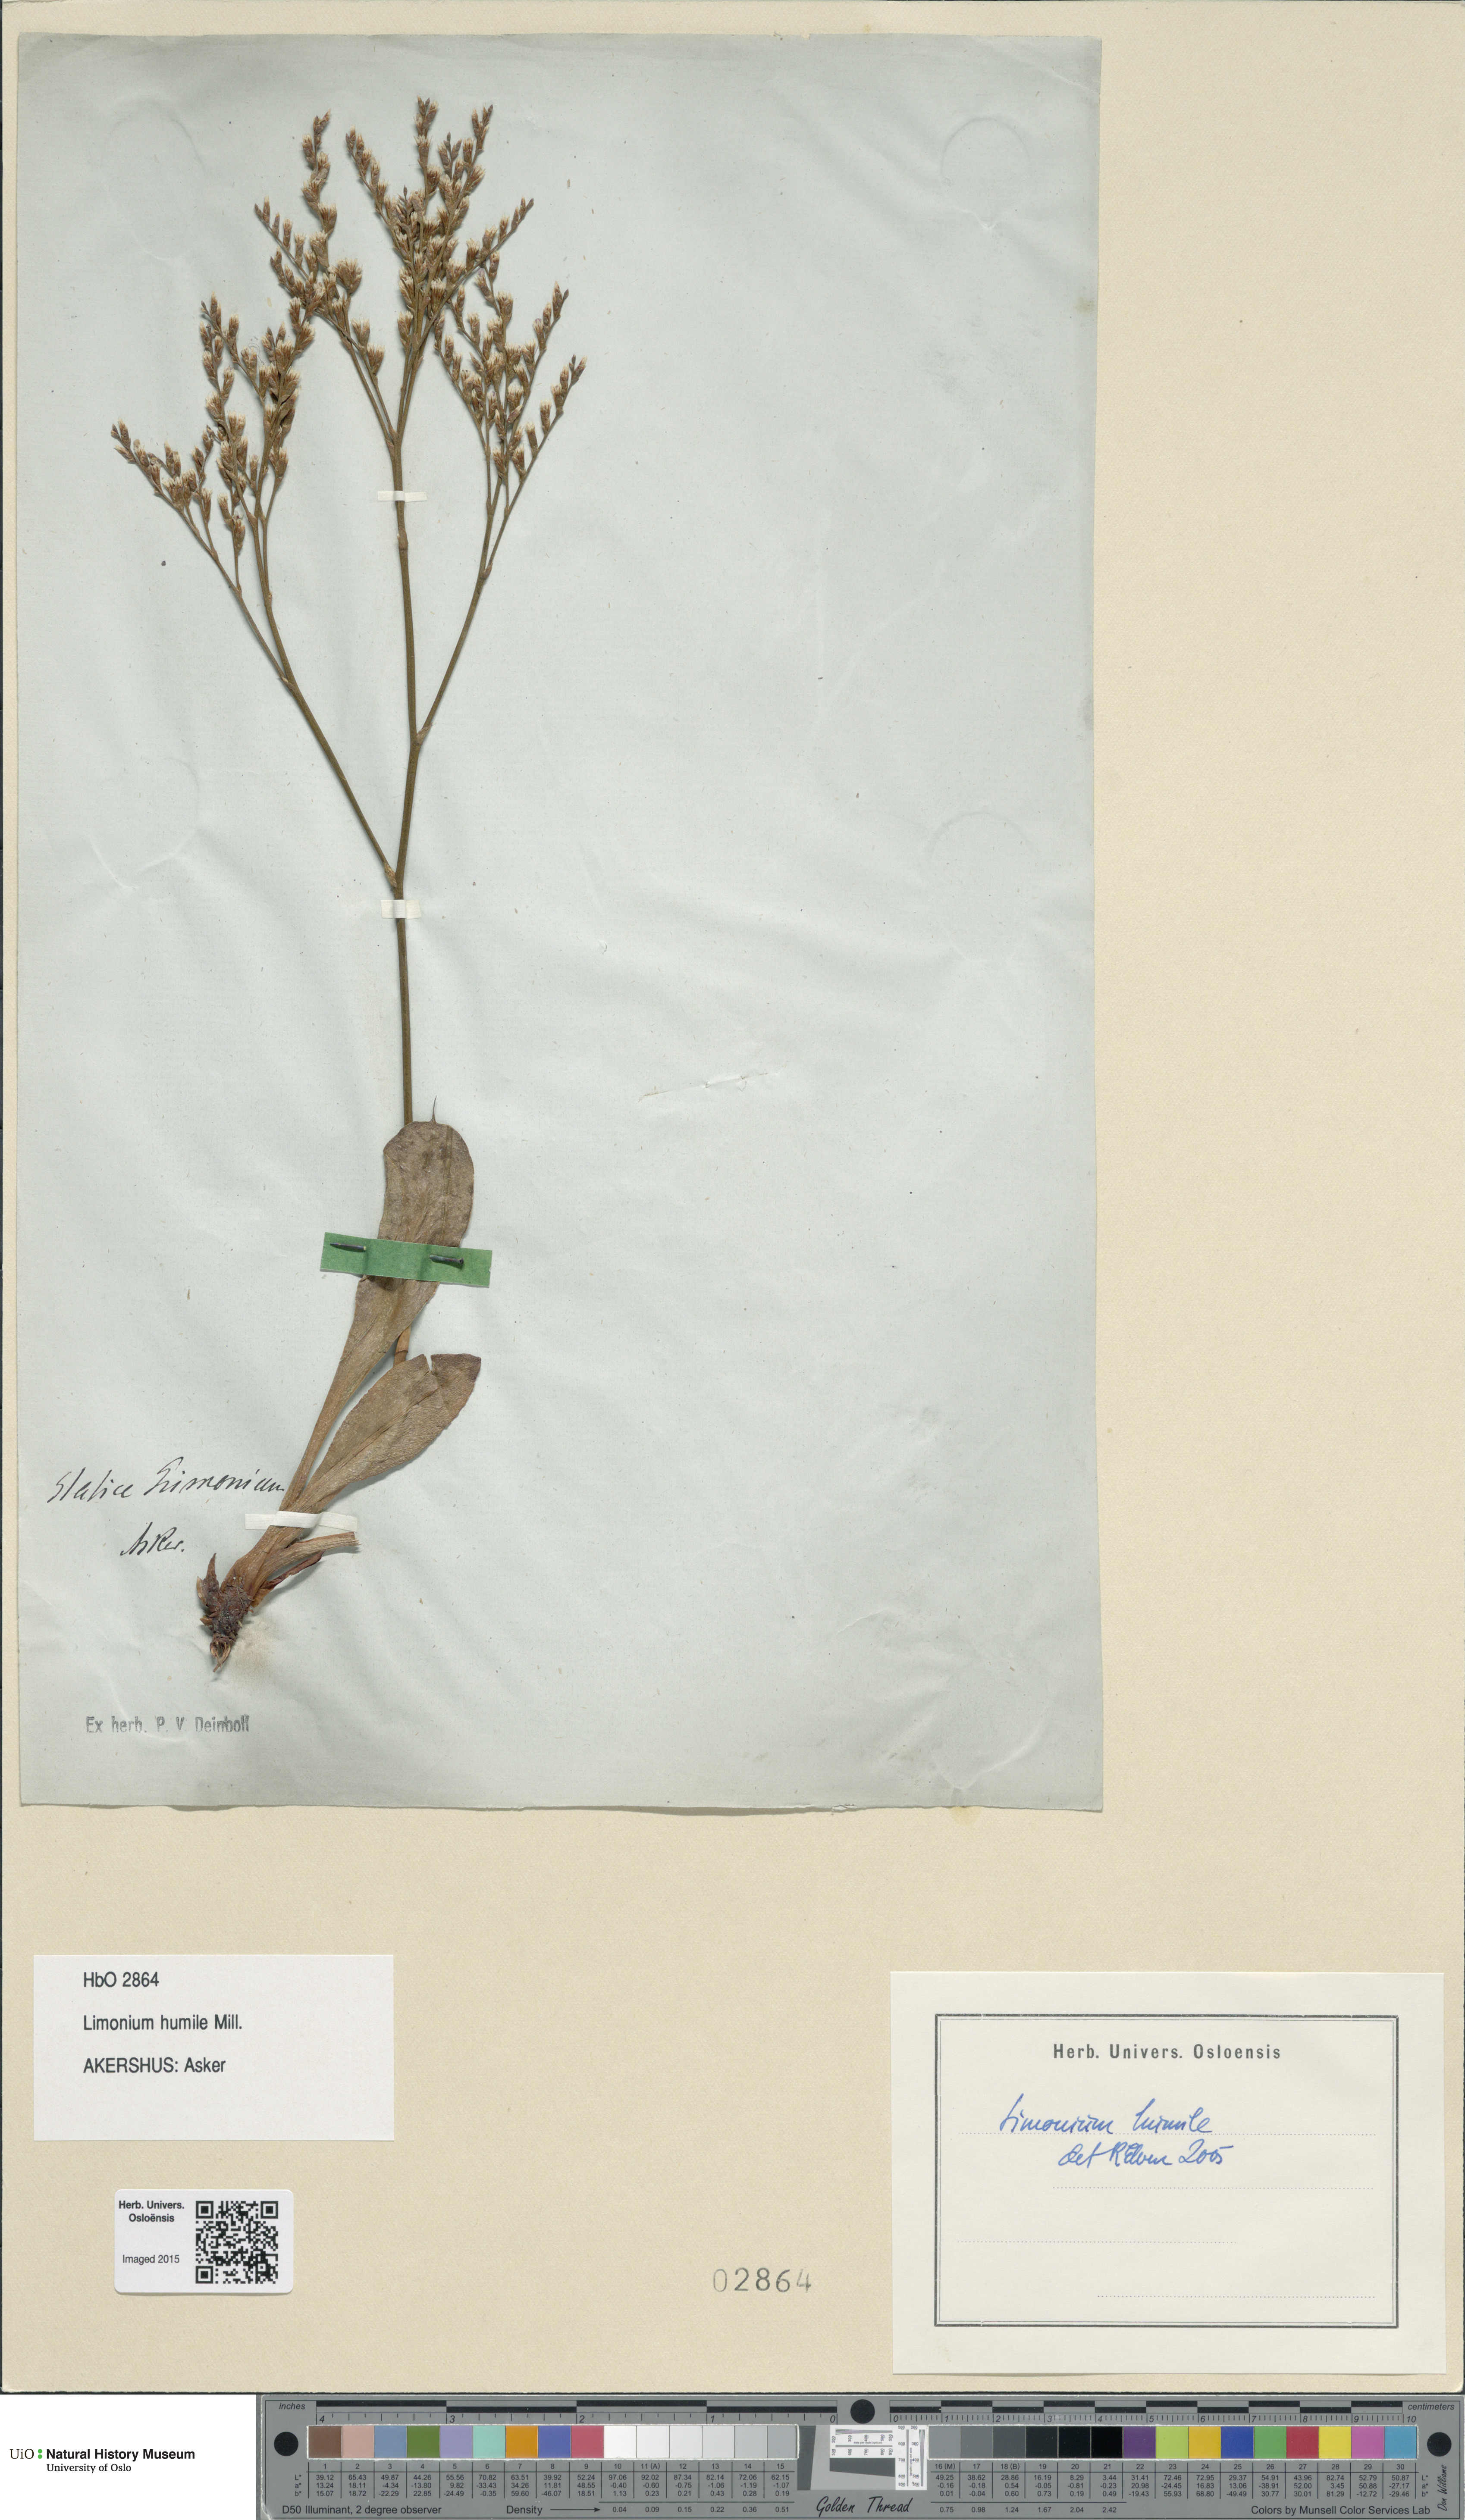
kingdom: Plantae
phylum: Tracheophyta
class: Magnoliopsida
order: Caryophyllales
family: Plumbaginaceae
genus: Limonium
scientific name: Limonium humile
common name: Lax-flowered sea-lavender
